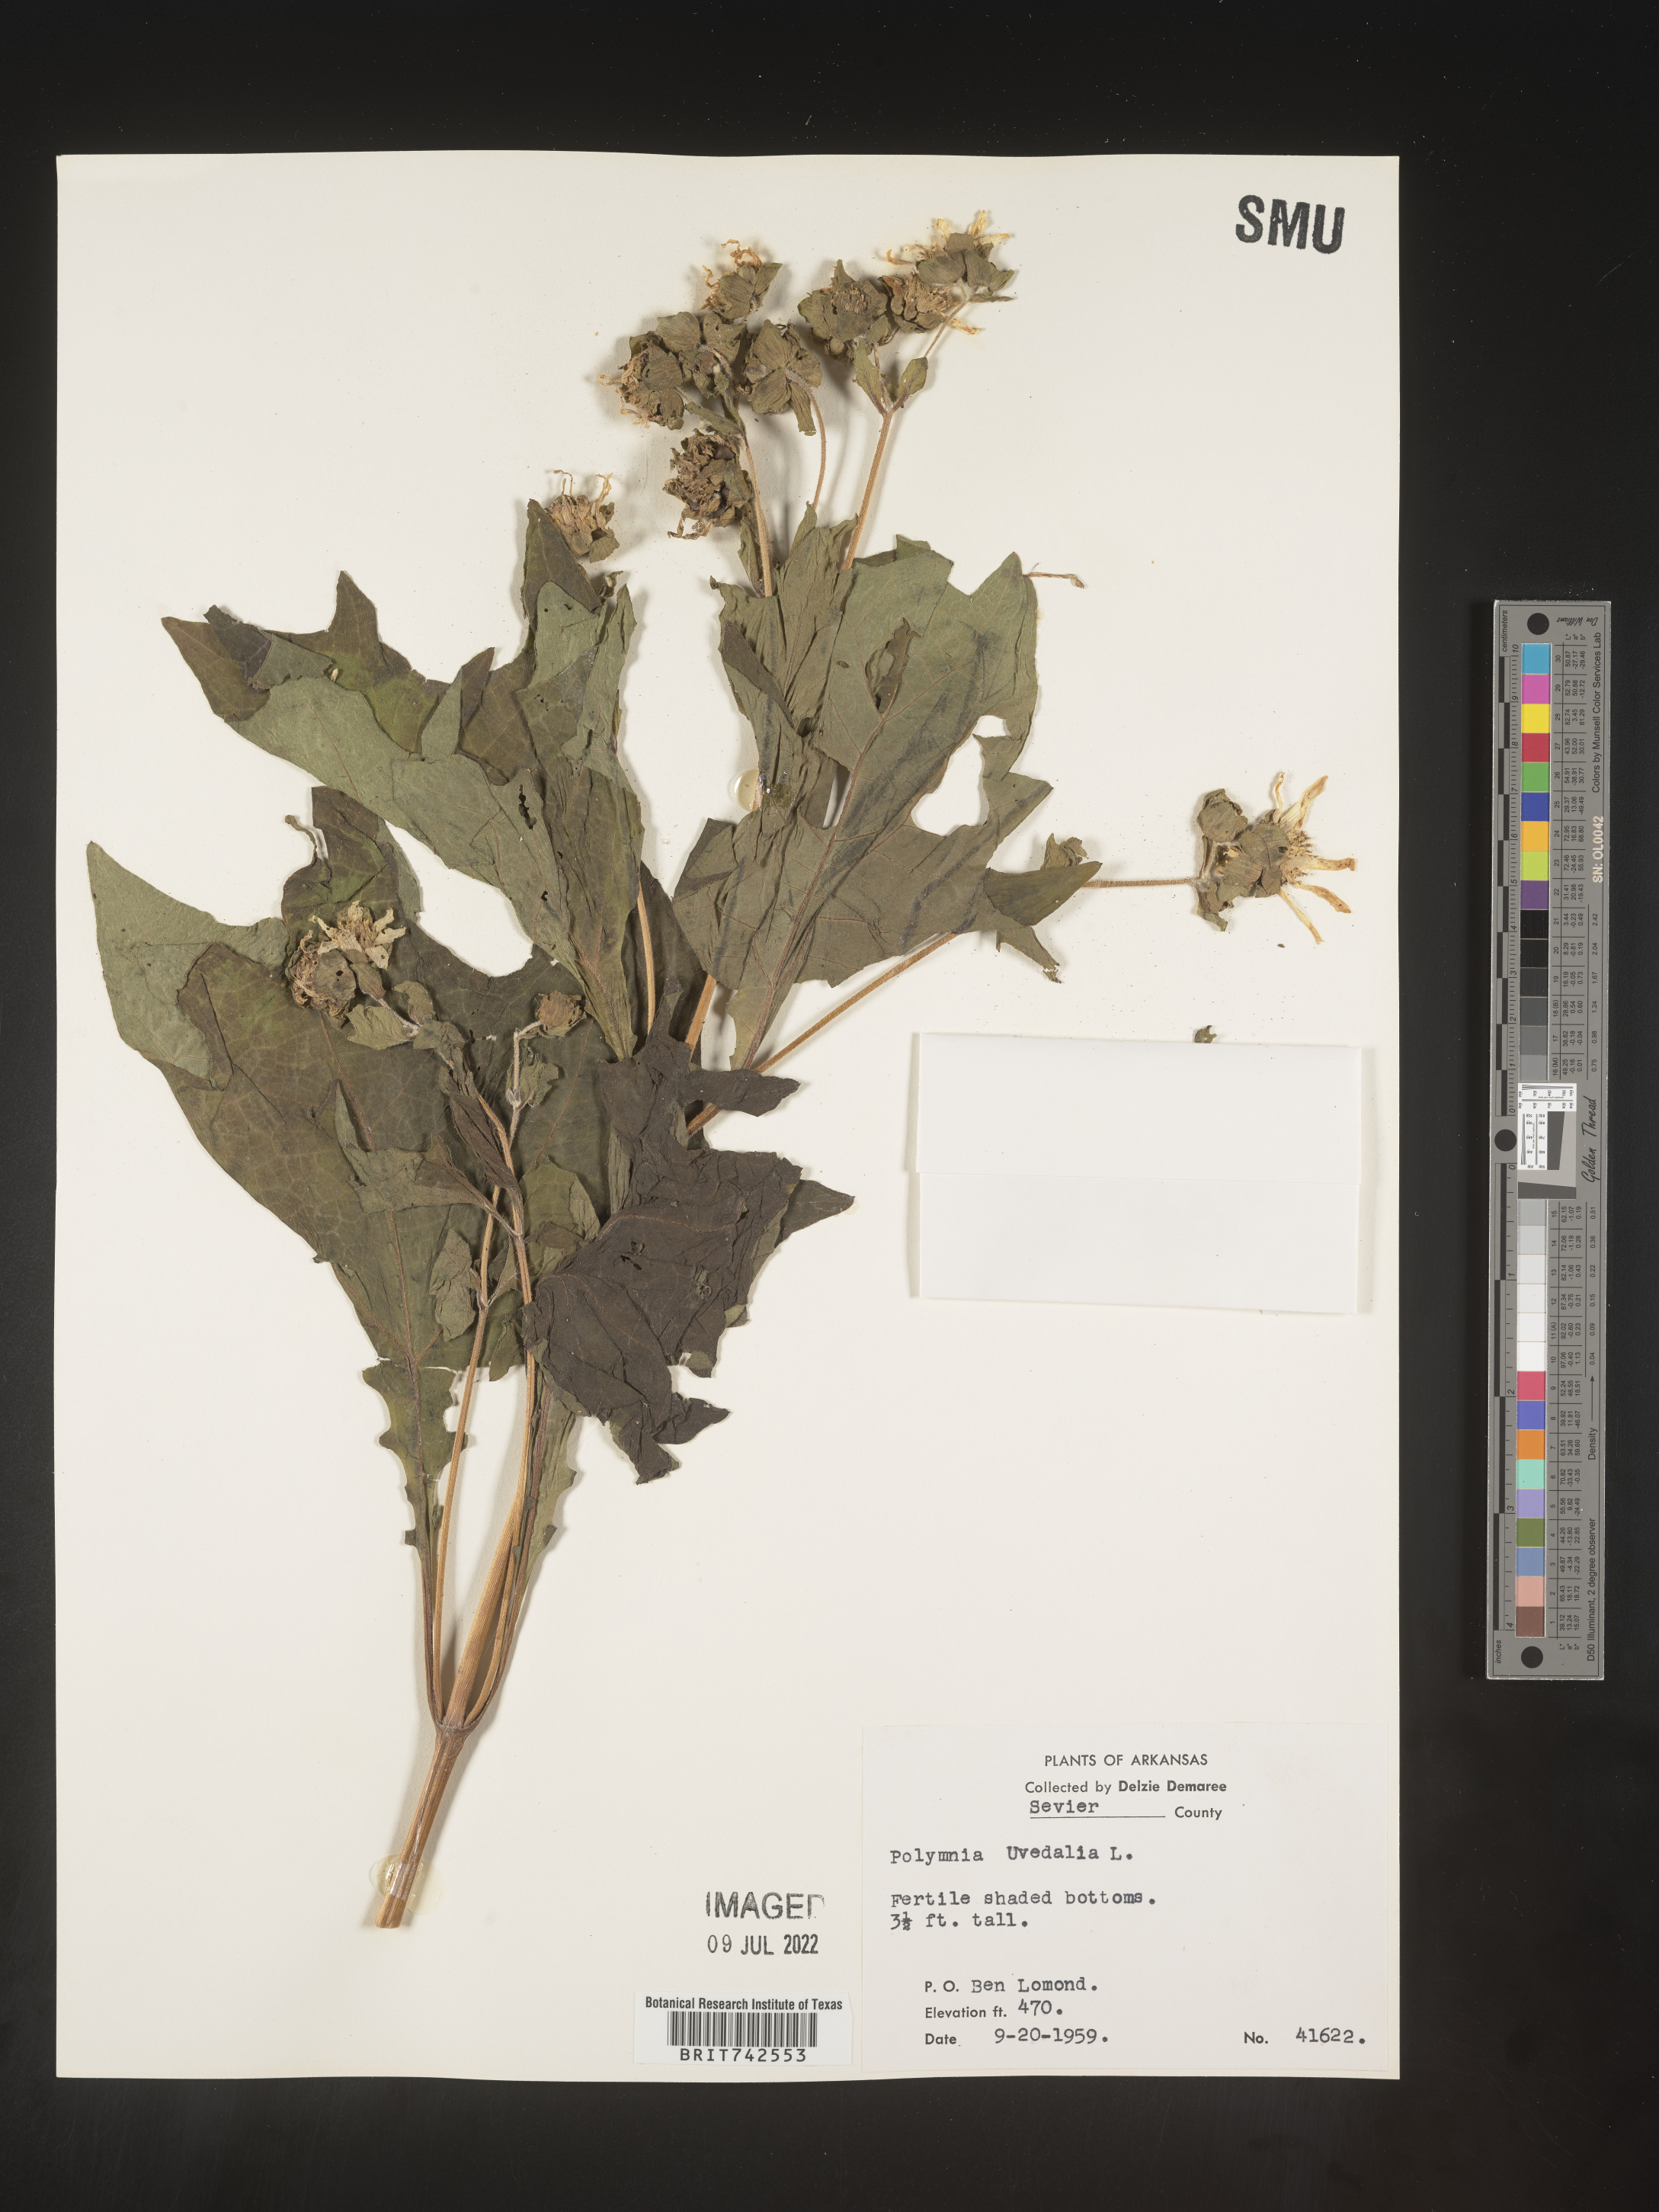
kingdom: Plantae
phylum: Tracheophyta
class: Magnoliopsida
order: Asterales
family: Asteraceae
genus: Smallanthus
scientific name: Smallanthus uvedalia
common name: Bear's-foot
